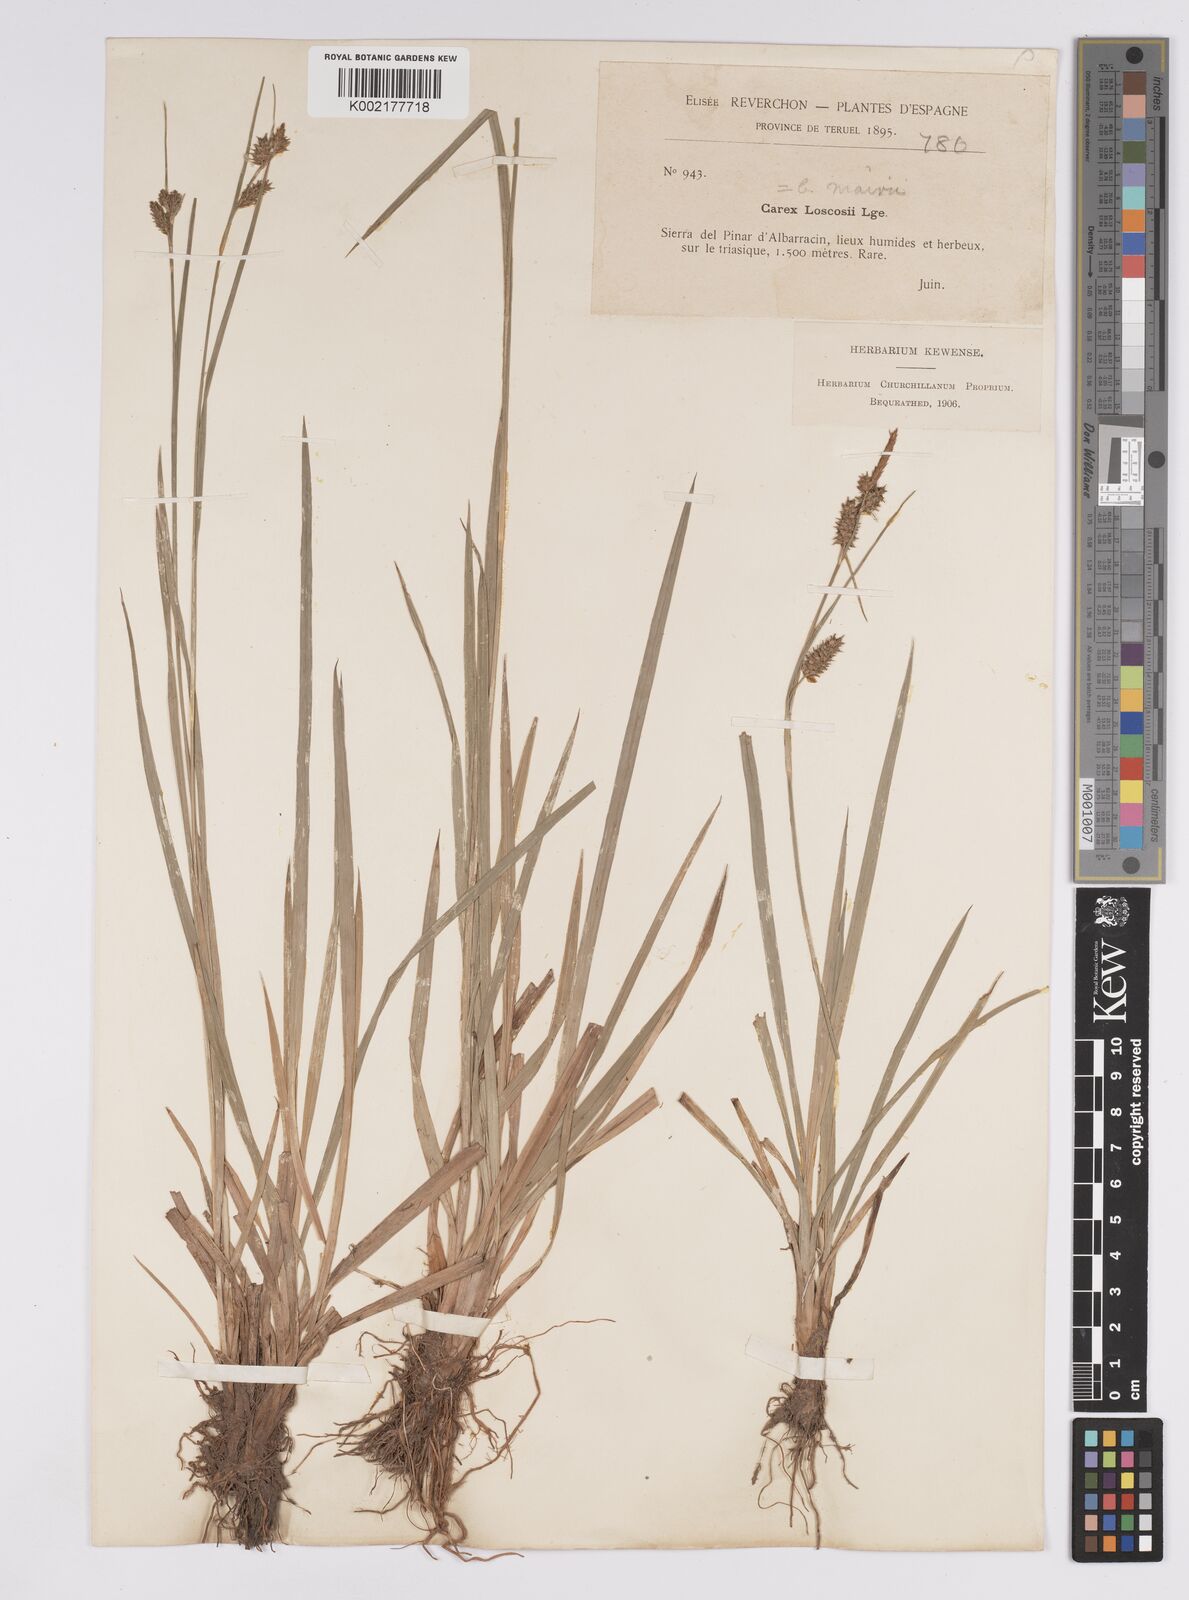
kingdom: Plantae
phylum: Tracheophyta
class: Liliopsida
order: Poales
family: Cyperaceae
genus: Carex
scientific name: Carex mairei
